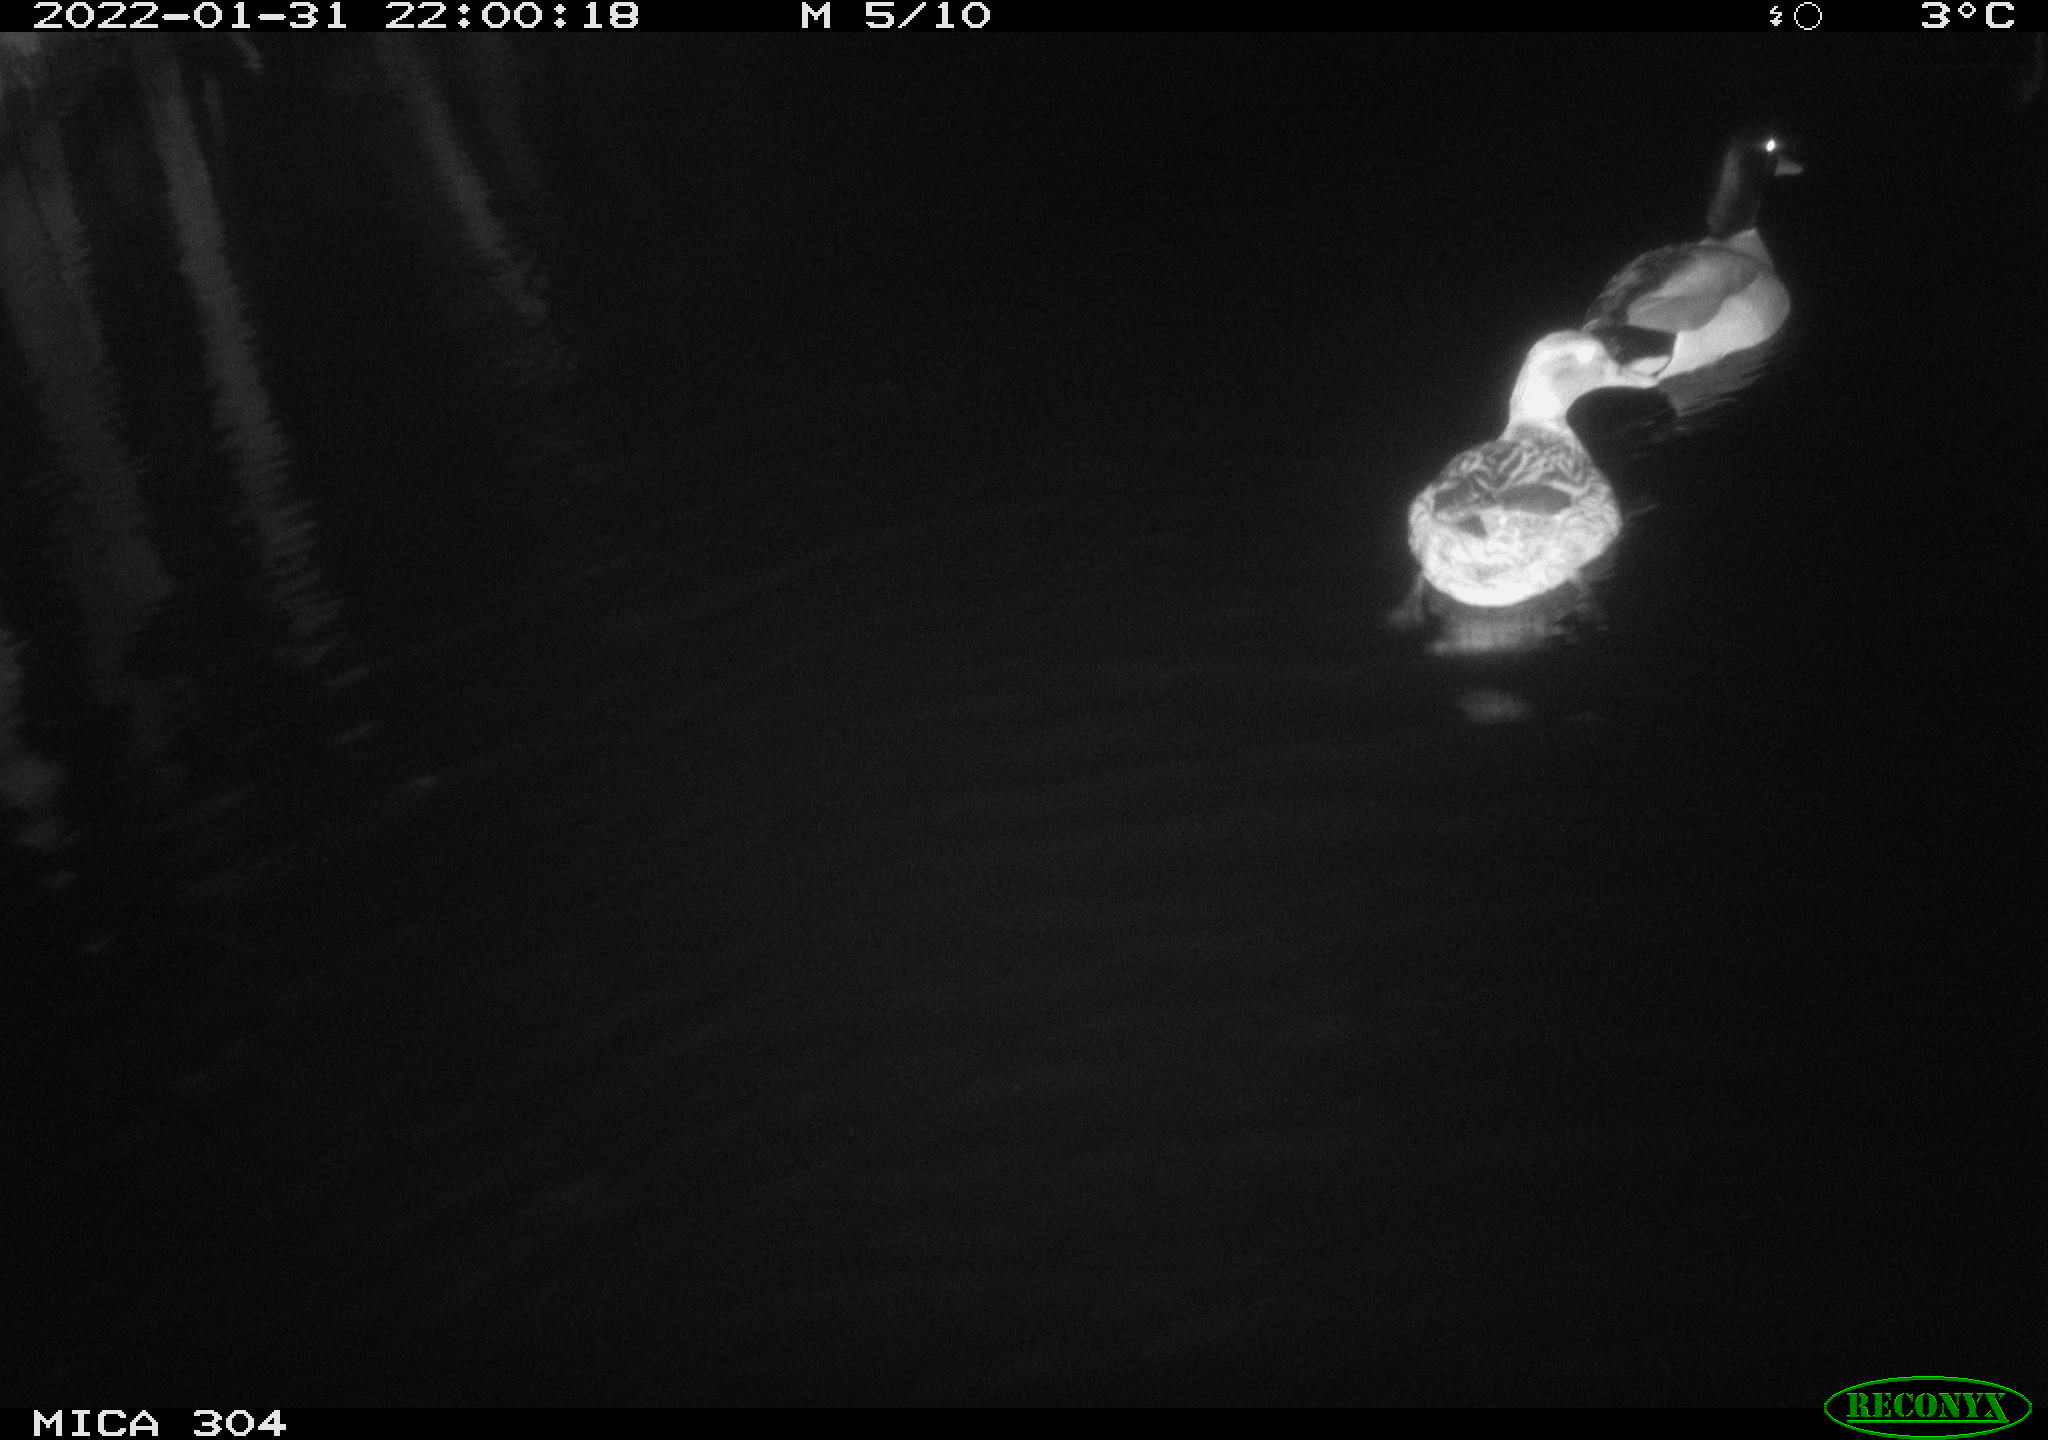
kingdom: Animalia
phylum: Chordata
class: Aves
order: Anseriformes
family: Anatidae
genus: Anas
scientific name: Anas
